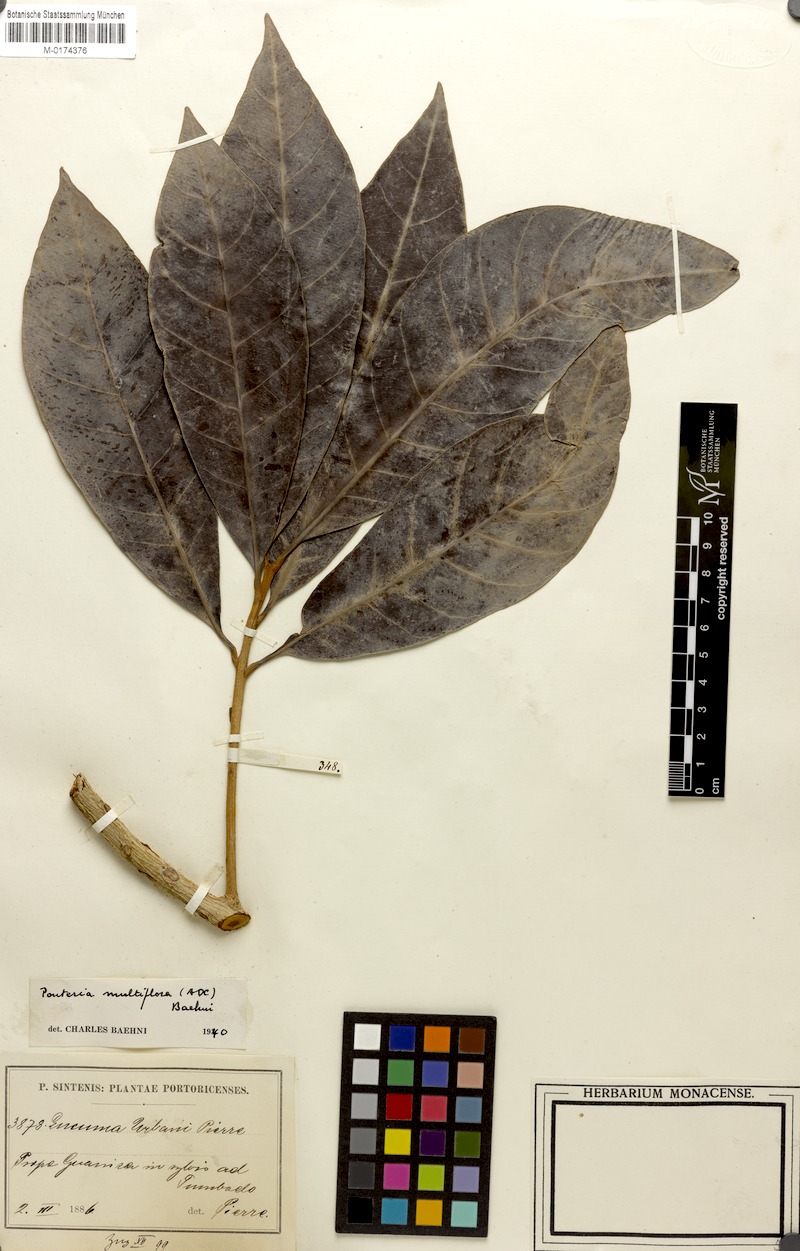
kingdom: Plantae
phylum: Tracheophyta
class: Magnoliopsida
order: Ericales
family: Sapotaceae
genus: Pouteria
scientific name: Pouteria multiflora
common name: Bullytree
